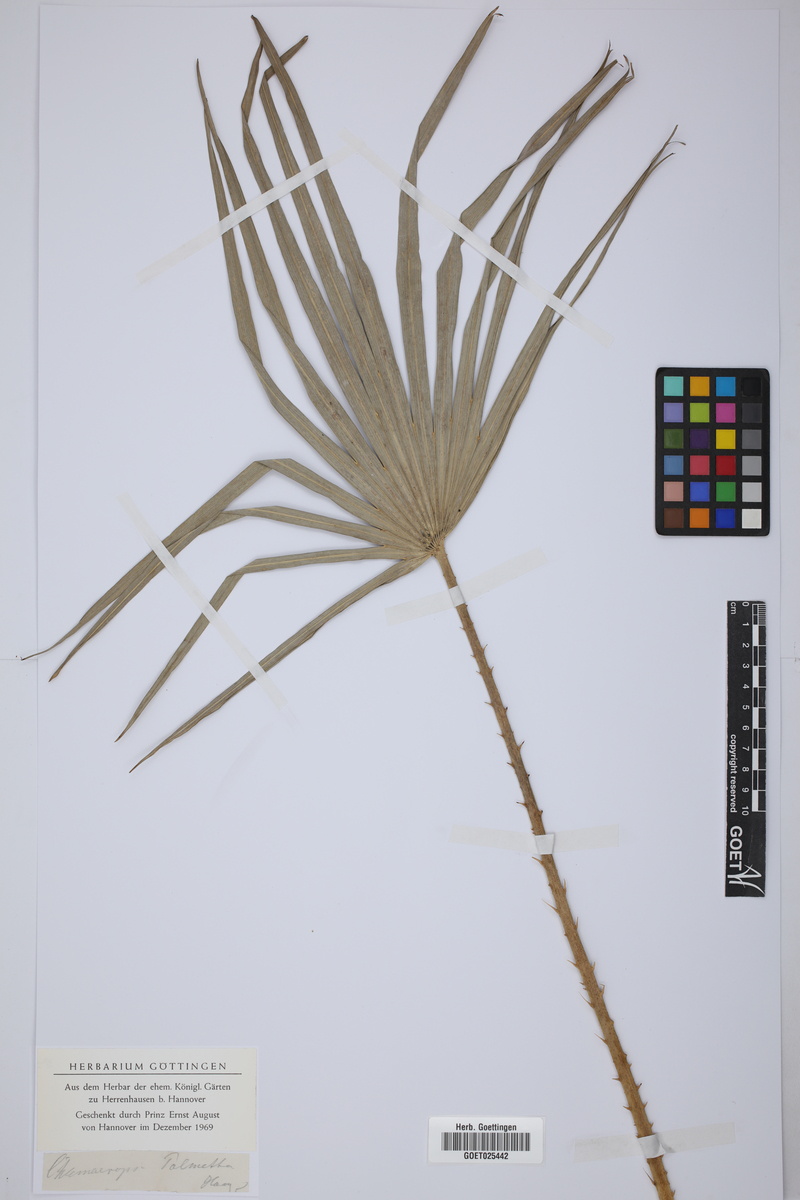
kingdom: Plantae
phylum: Tracheophyta
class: Liliopsida
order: Arecales
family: Arecaceae
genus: Sabal
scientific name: Sabal palmetto
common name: Blue palmetto
